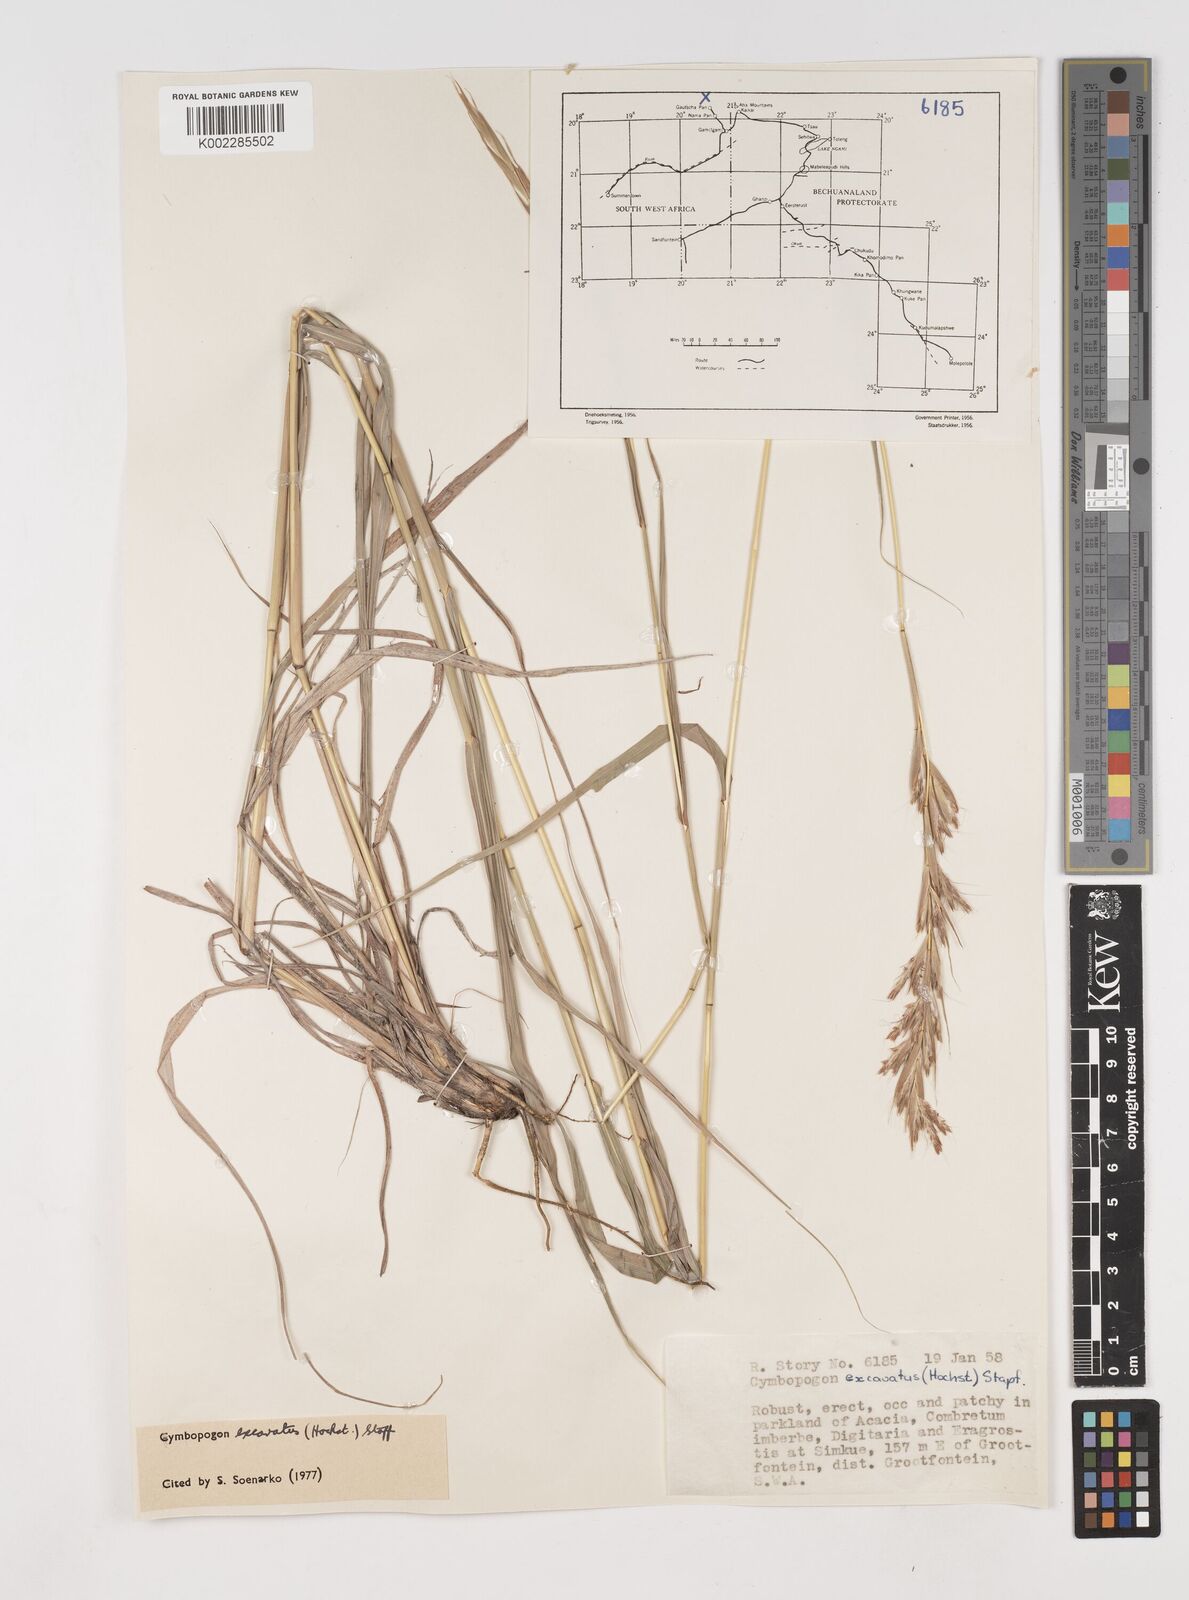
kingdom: Plantae
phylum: Tracheophyta
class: Liliopsida
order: Poales
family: Poaceae
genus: Cymbopogon
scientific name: Cymbopogon caesius
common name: Kachi grass
